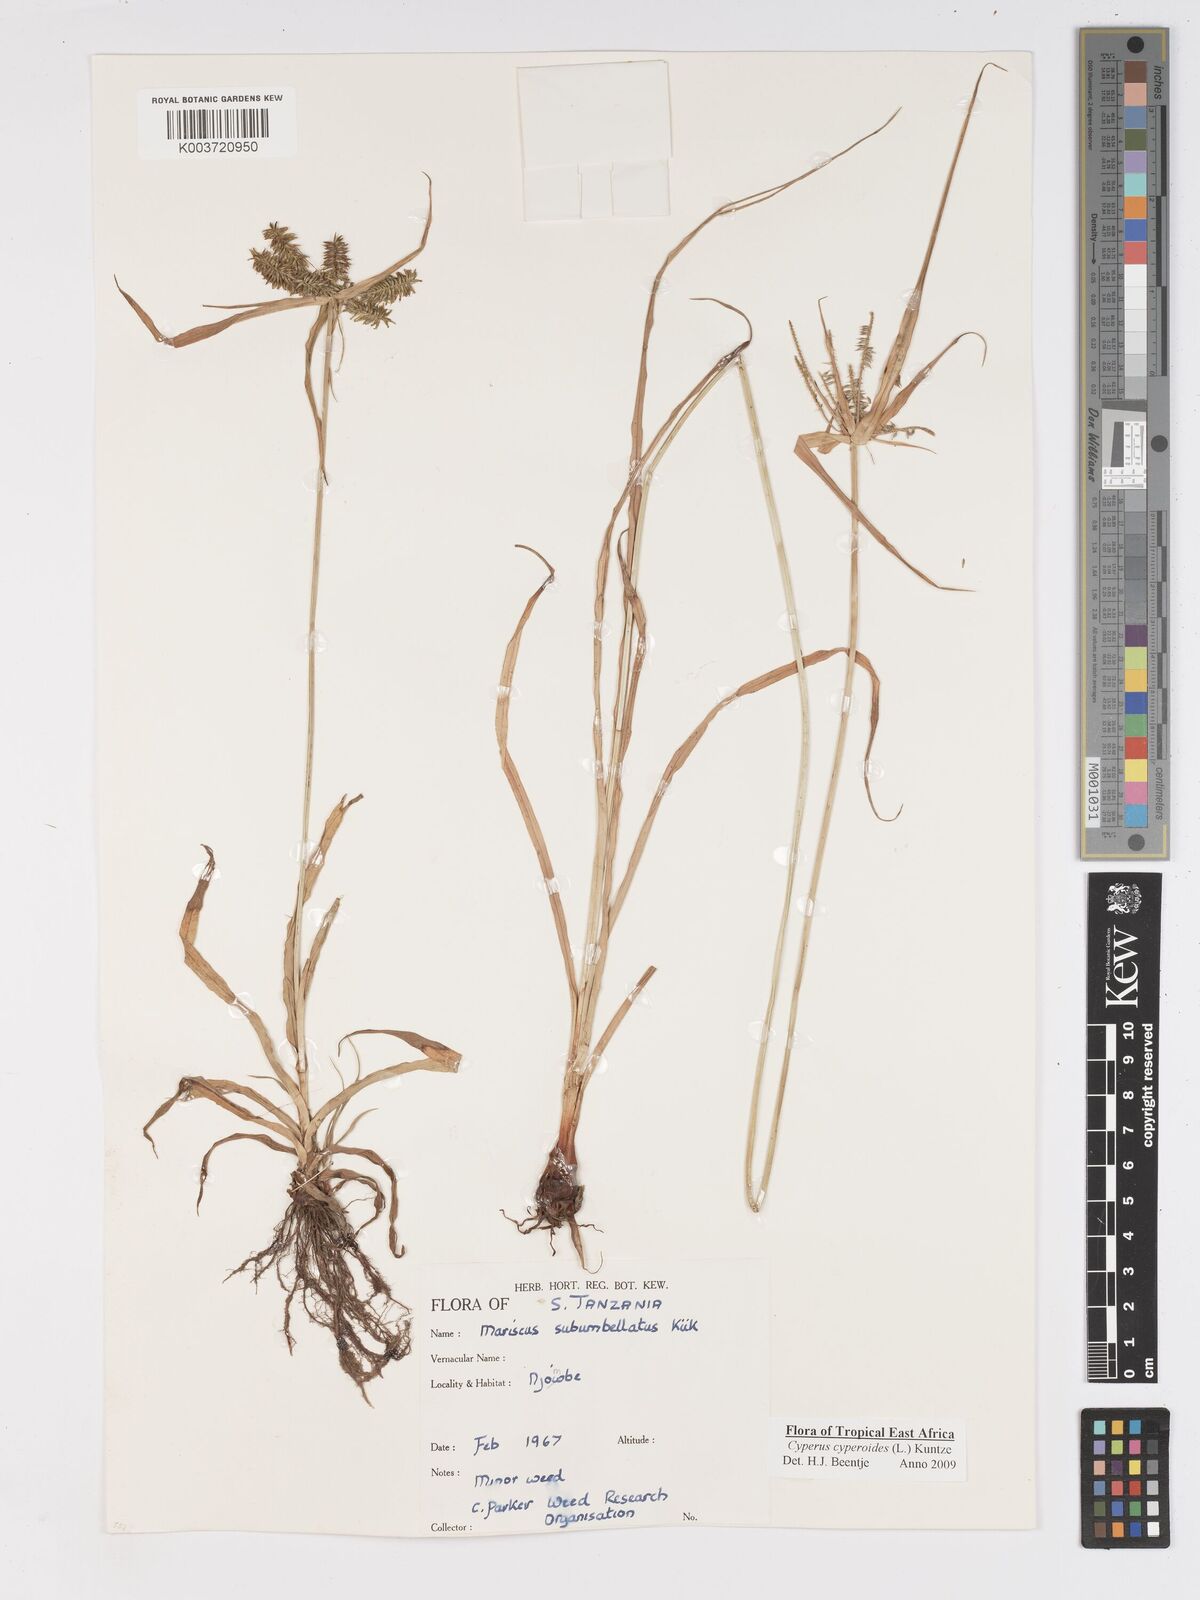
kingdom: Plantae
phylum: Tracheophyta
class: Liliopsida
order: Poales
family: Cyperaceae
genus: Cyperus
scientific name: Cyperus cyperoides
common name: Pacific island flat sedge
